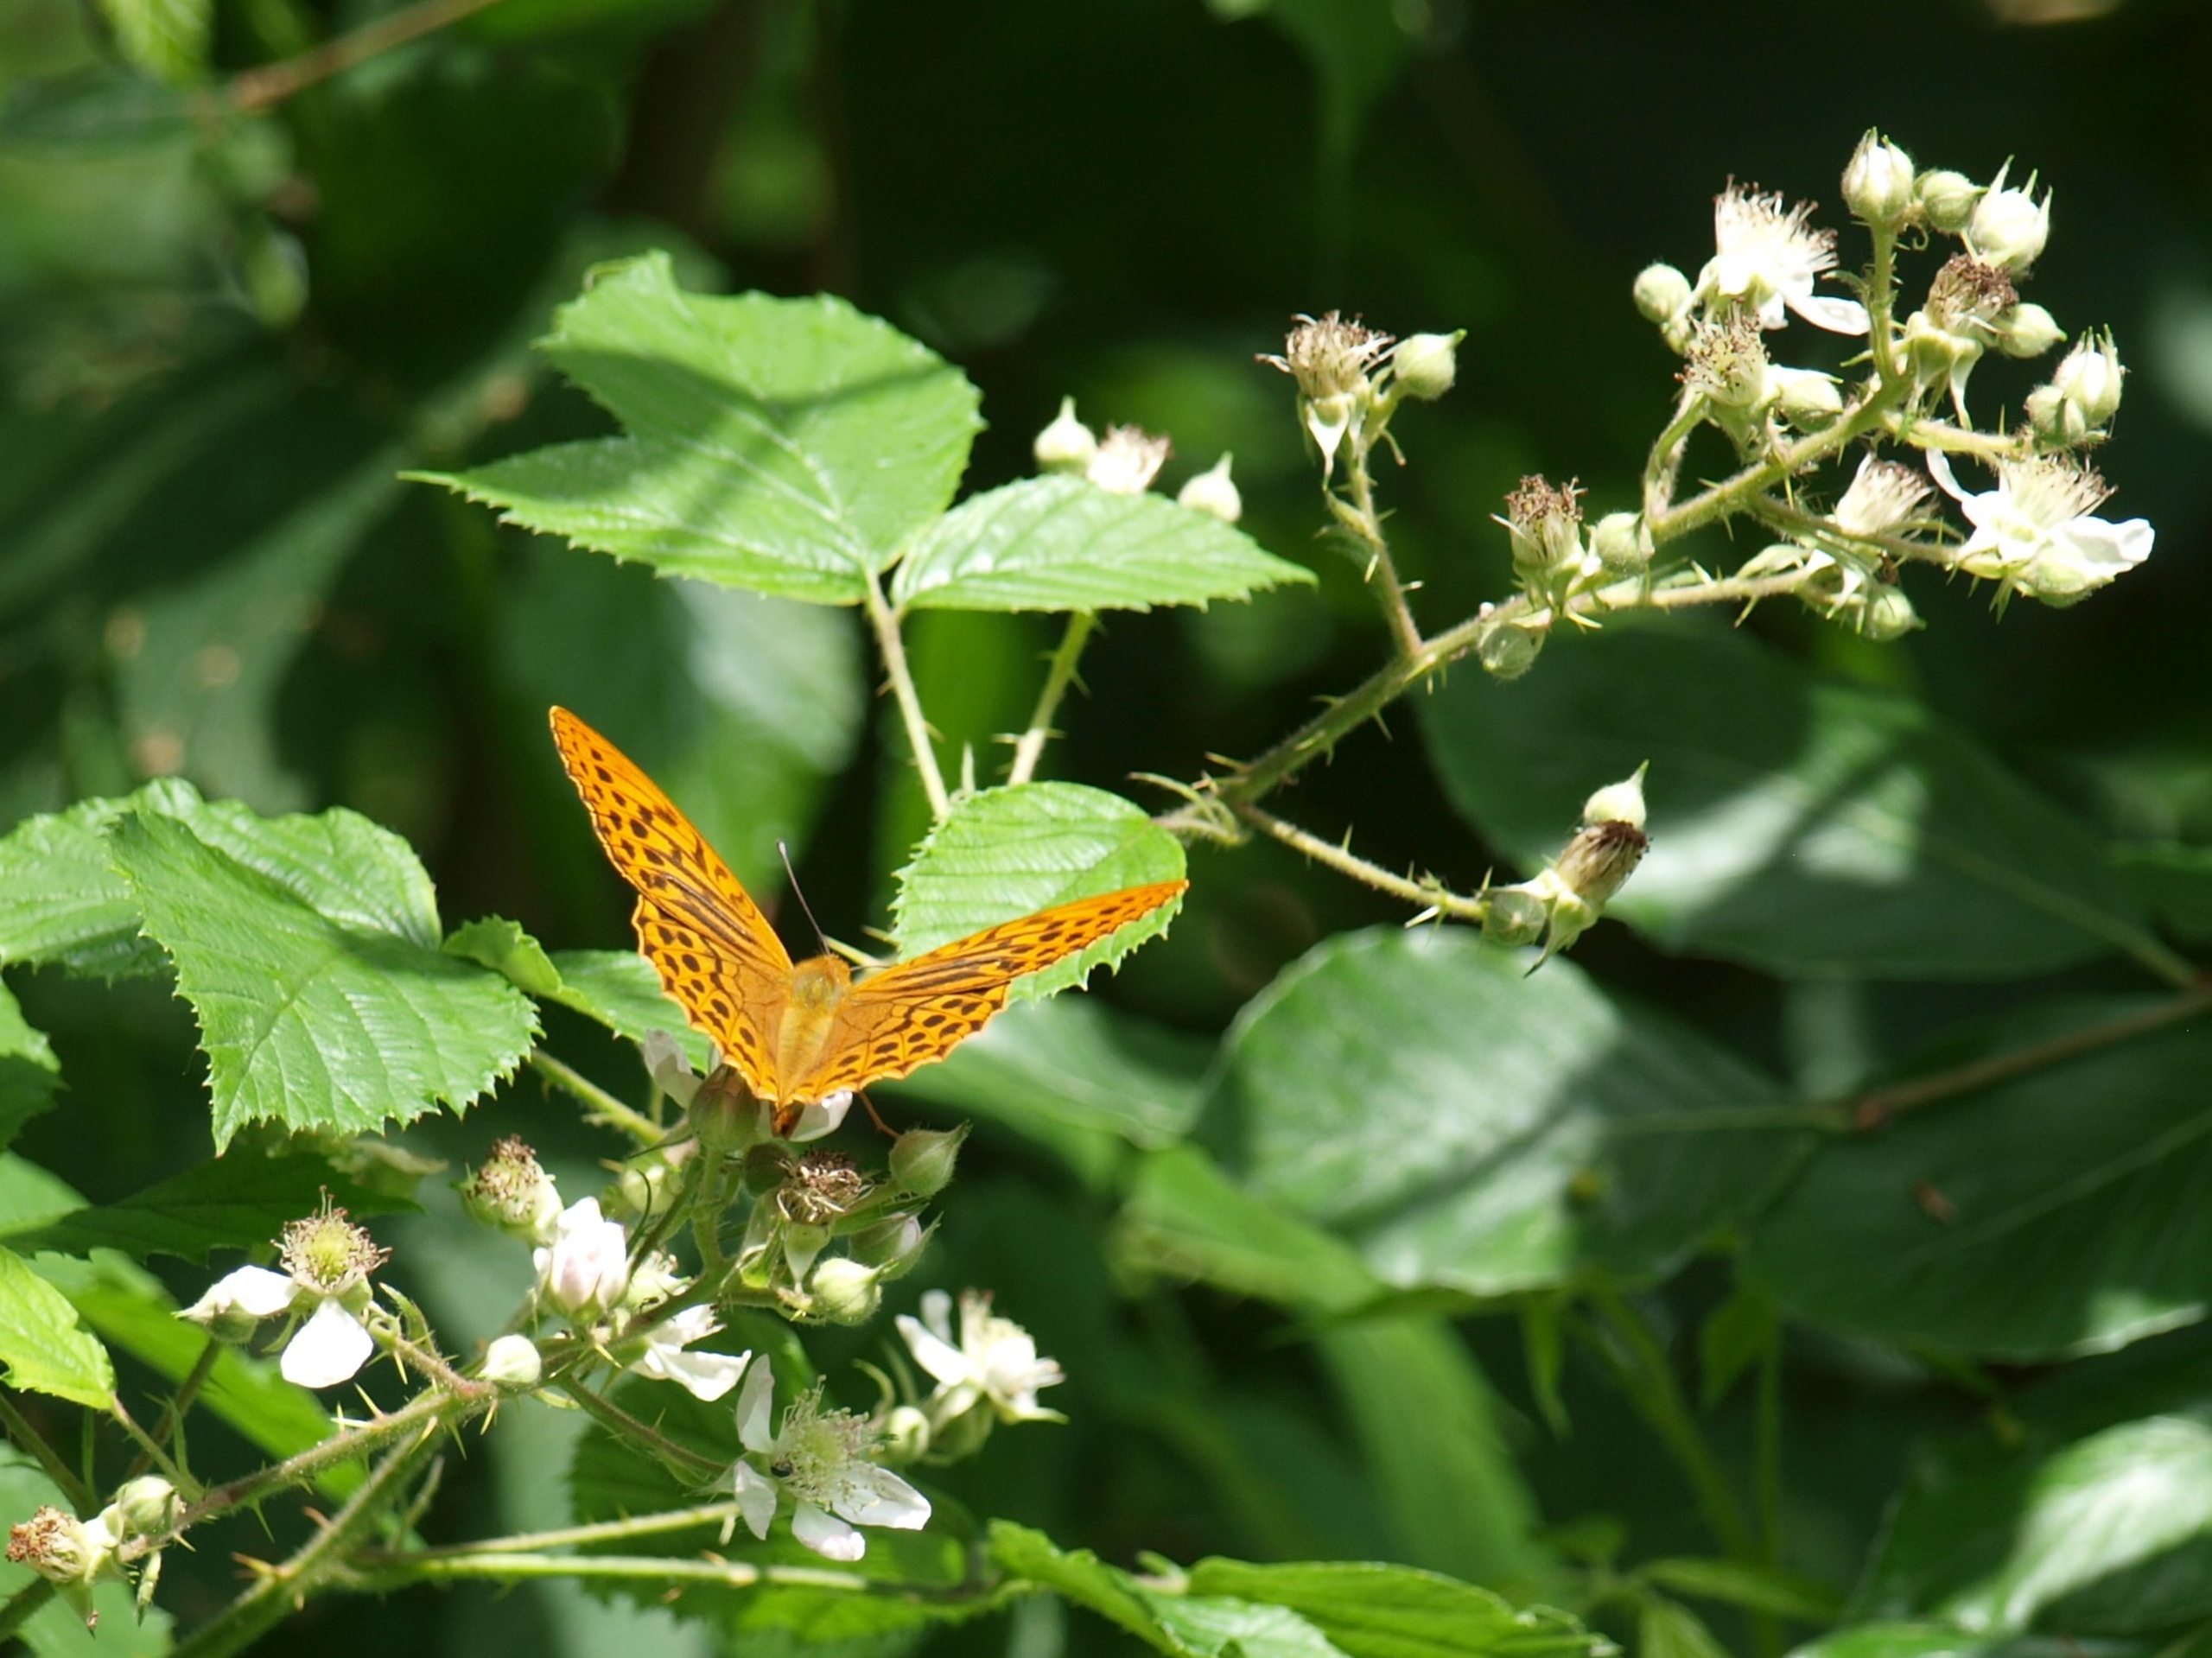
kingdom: Animalia
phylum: Arthropoda
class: Insecta
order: Lepidoptera
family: Nymphalidae
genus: Argynnis
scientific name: Argynnis paphia
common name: Kejserkåbe
